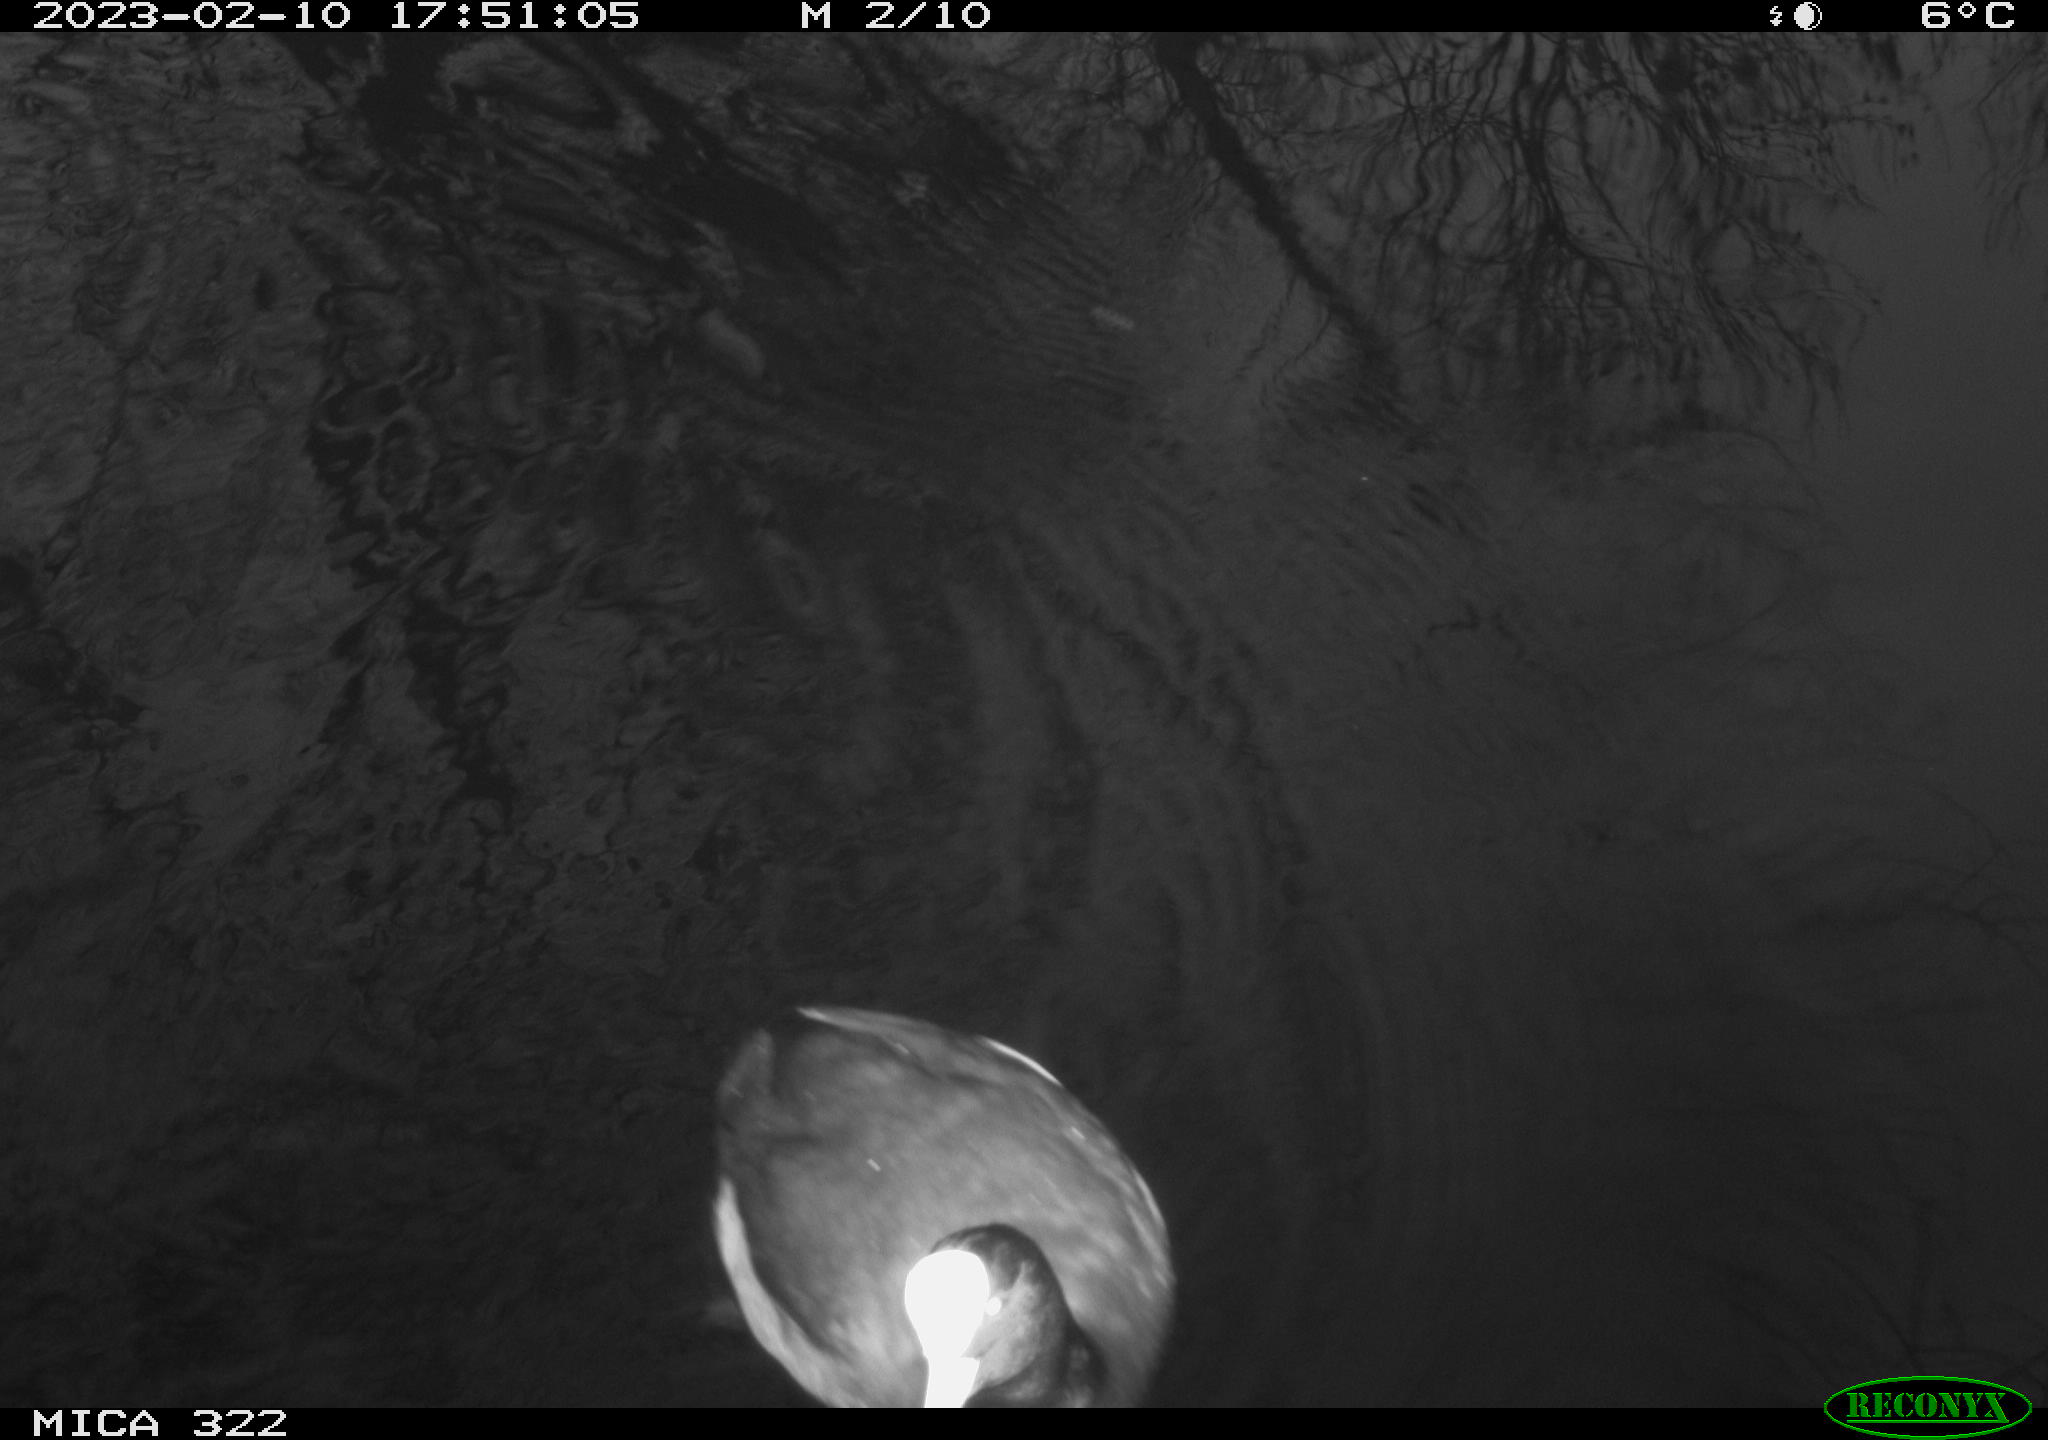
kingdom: Animalia
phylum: Chordata
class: Aves
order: Gruiformes
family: Rallidae
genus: Fulica
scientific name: Fulica atra
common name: Eurasian coot
